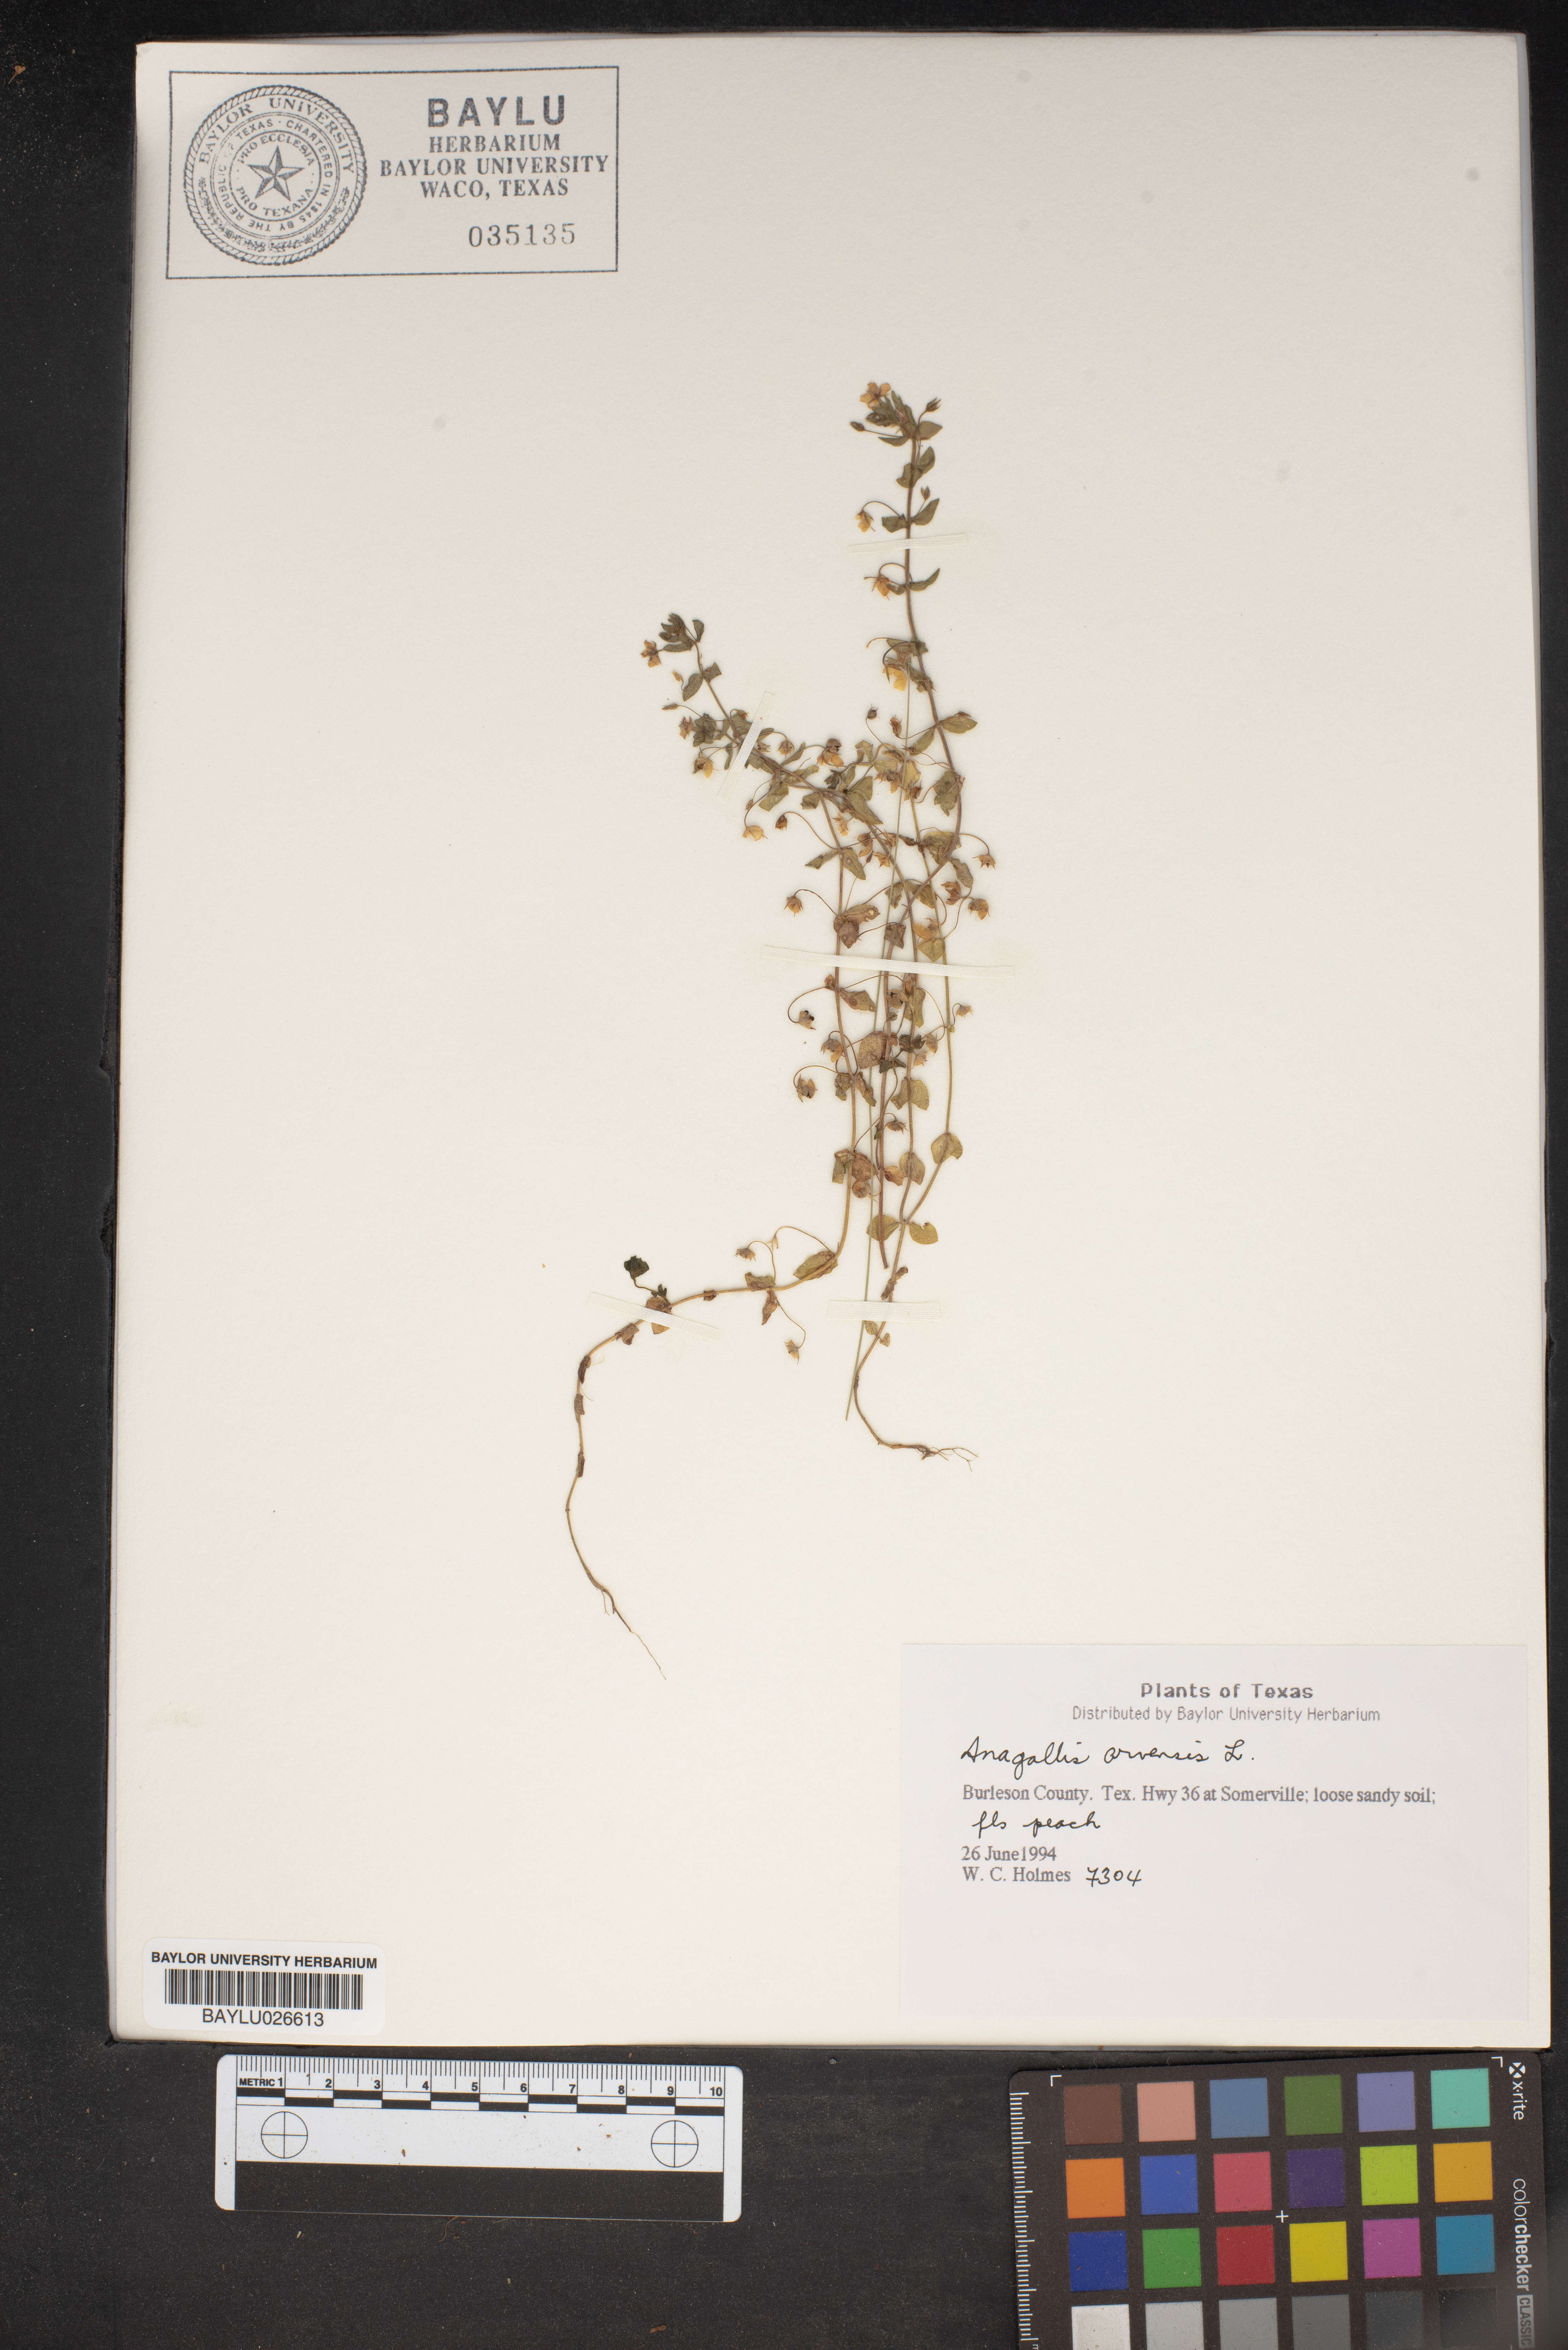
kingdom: Plantae
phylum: Tracheophyta
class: Magnoliopsida
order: Ericales
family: Primulaceae
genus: Lysimachia
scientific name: Lysimachia arvensis
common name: Scarlet pimpernel
